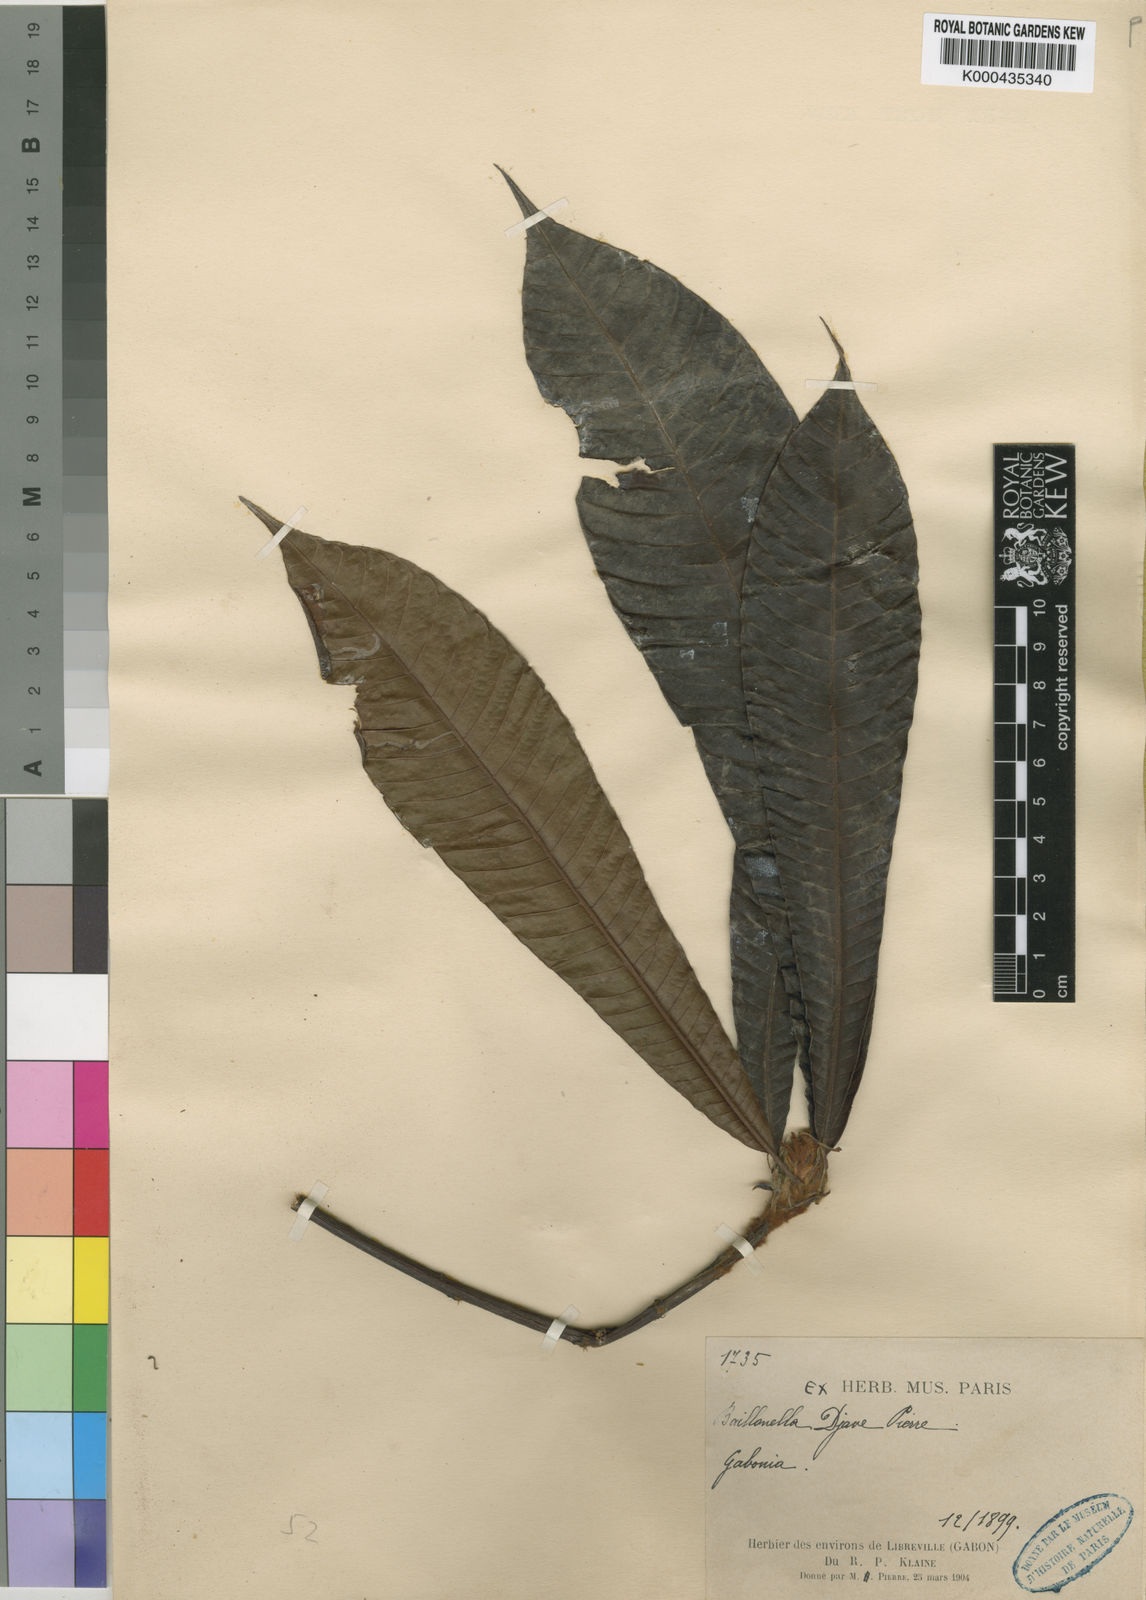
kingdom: Plantae
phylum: Tracheophyta
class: Magnoliopsida
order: Ericales
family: Sapotaceae
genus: Baillonella
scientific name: Baillonella toxisperma
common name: African pearwood
